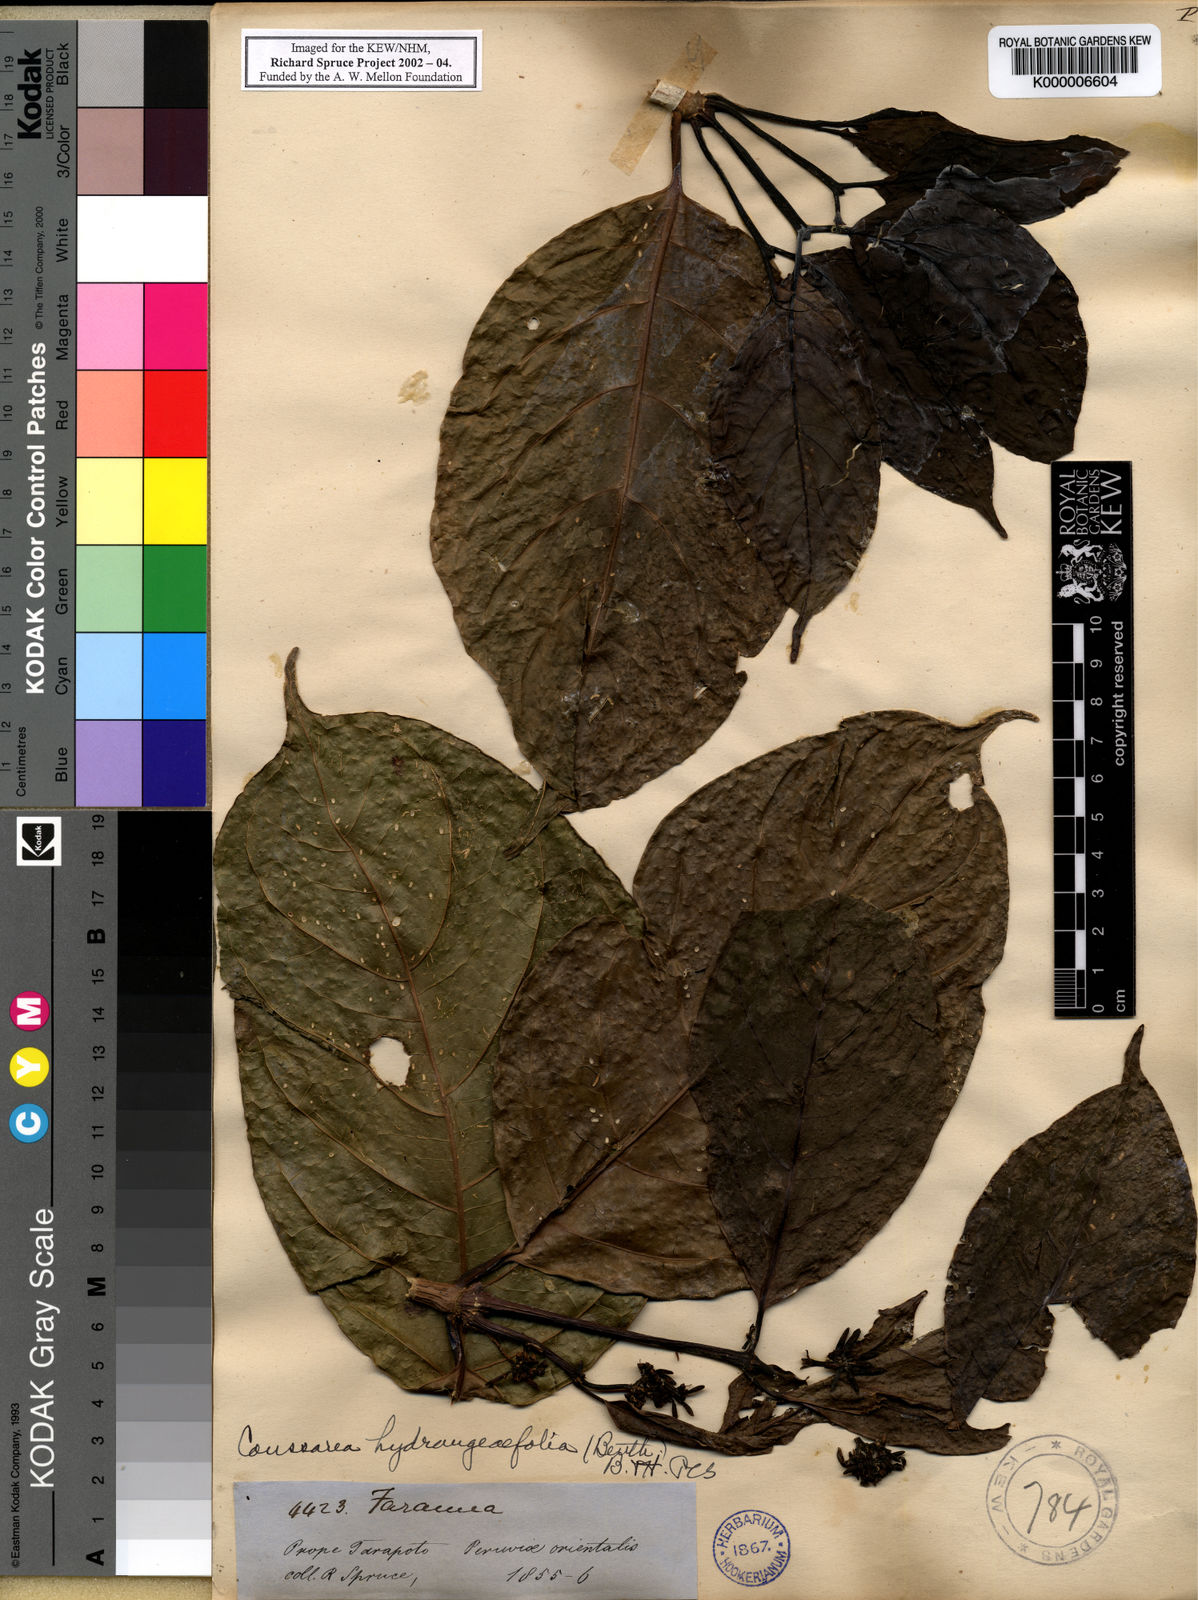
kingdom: Plantae
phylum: Tracheophyta
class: Magnoliopsida
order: Gentianales
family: Rubiaceae
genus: Coussarea
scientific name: Coussarea
